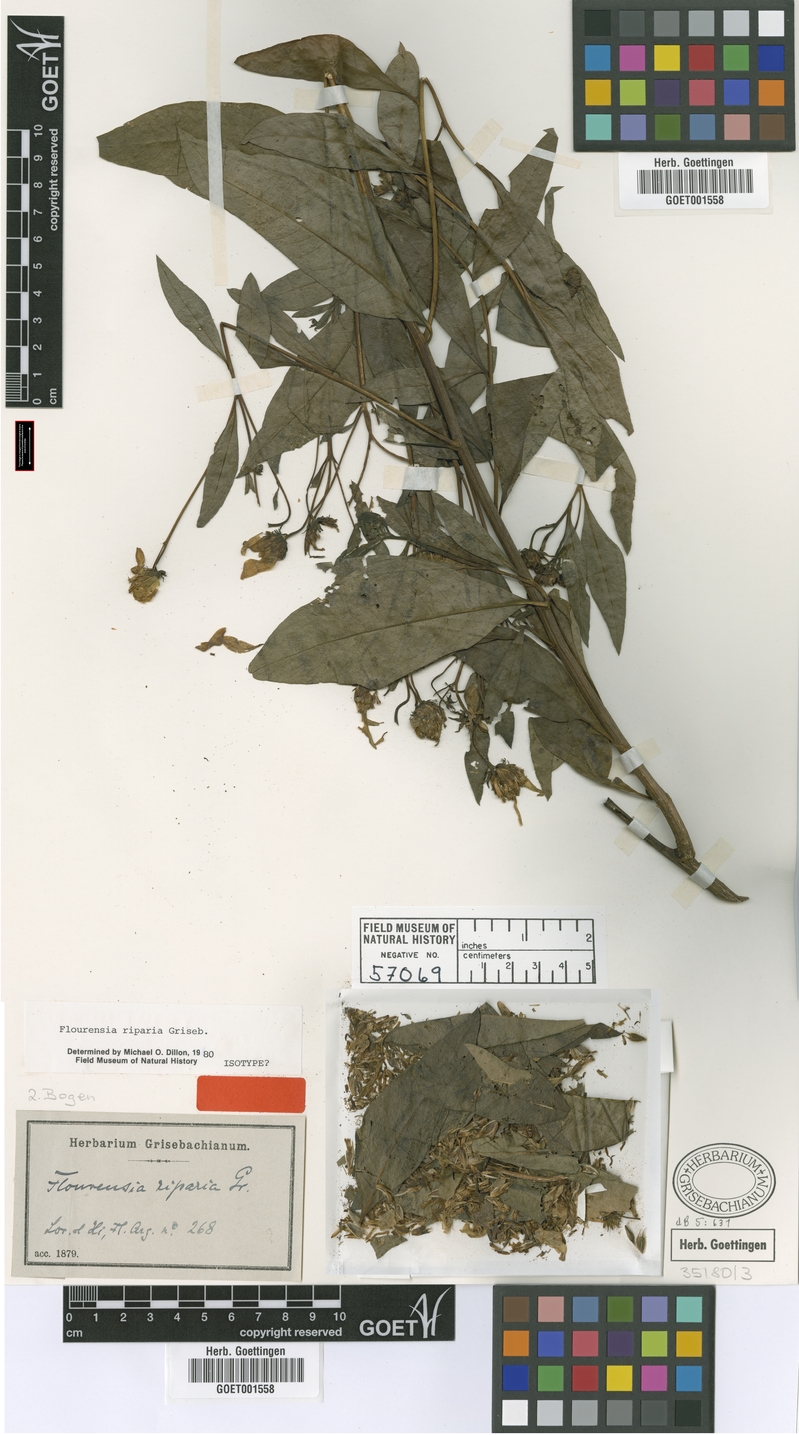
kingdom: Plantae
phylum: Tracheophyta
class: Magnoliopsida
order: Asterales
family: Asteraceae
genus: Flourensia
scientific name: Flourensia riparia
